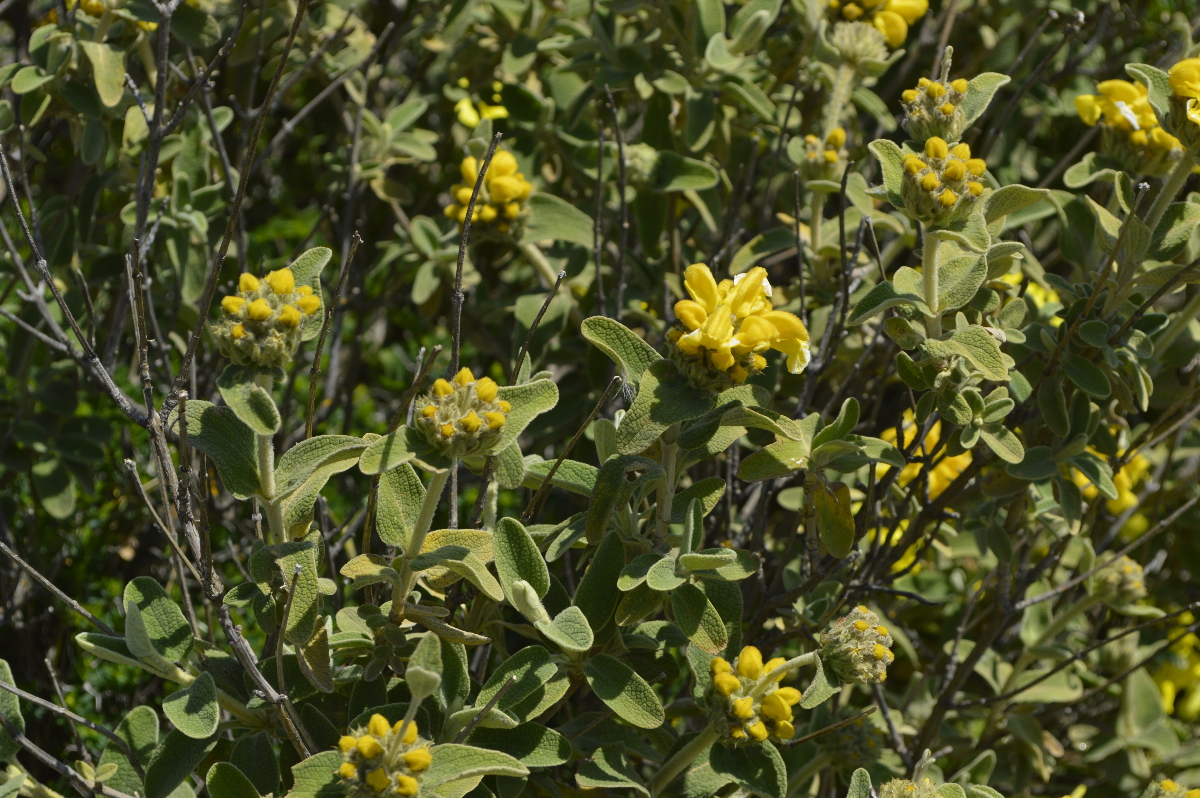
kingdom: Plantae
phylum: Tracheophyta
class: Magnoliopsida
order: Lamiales
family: Lamiaceae
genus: Phlomis
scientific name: Phlomis fruticosa
